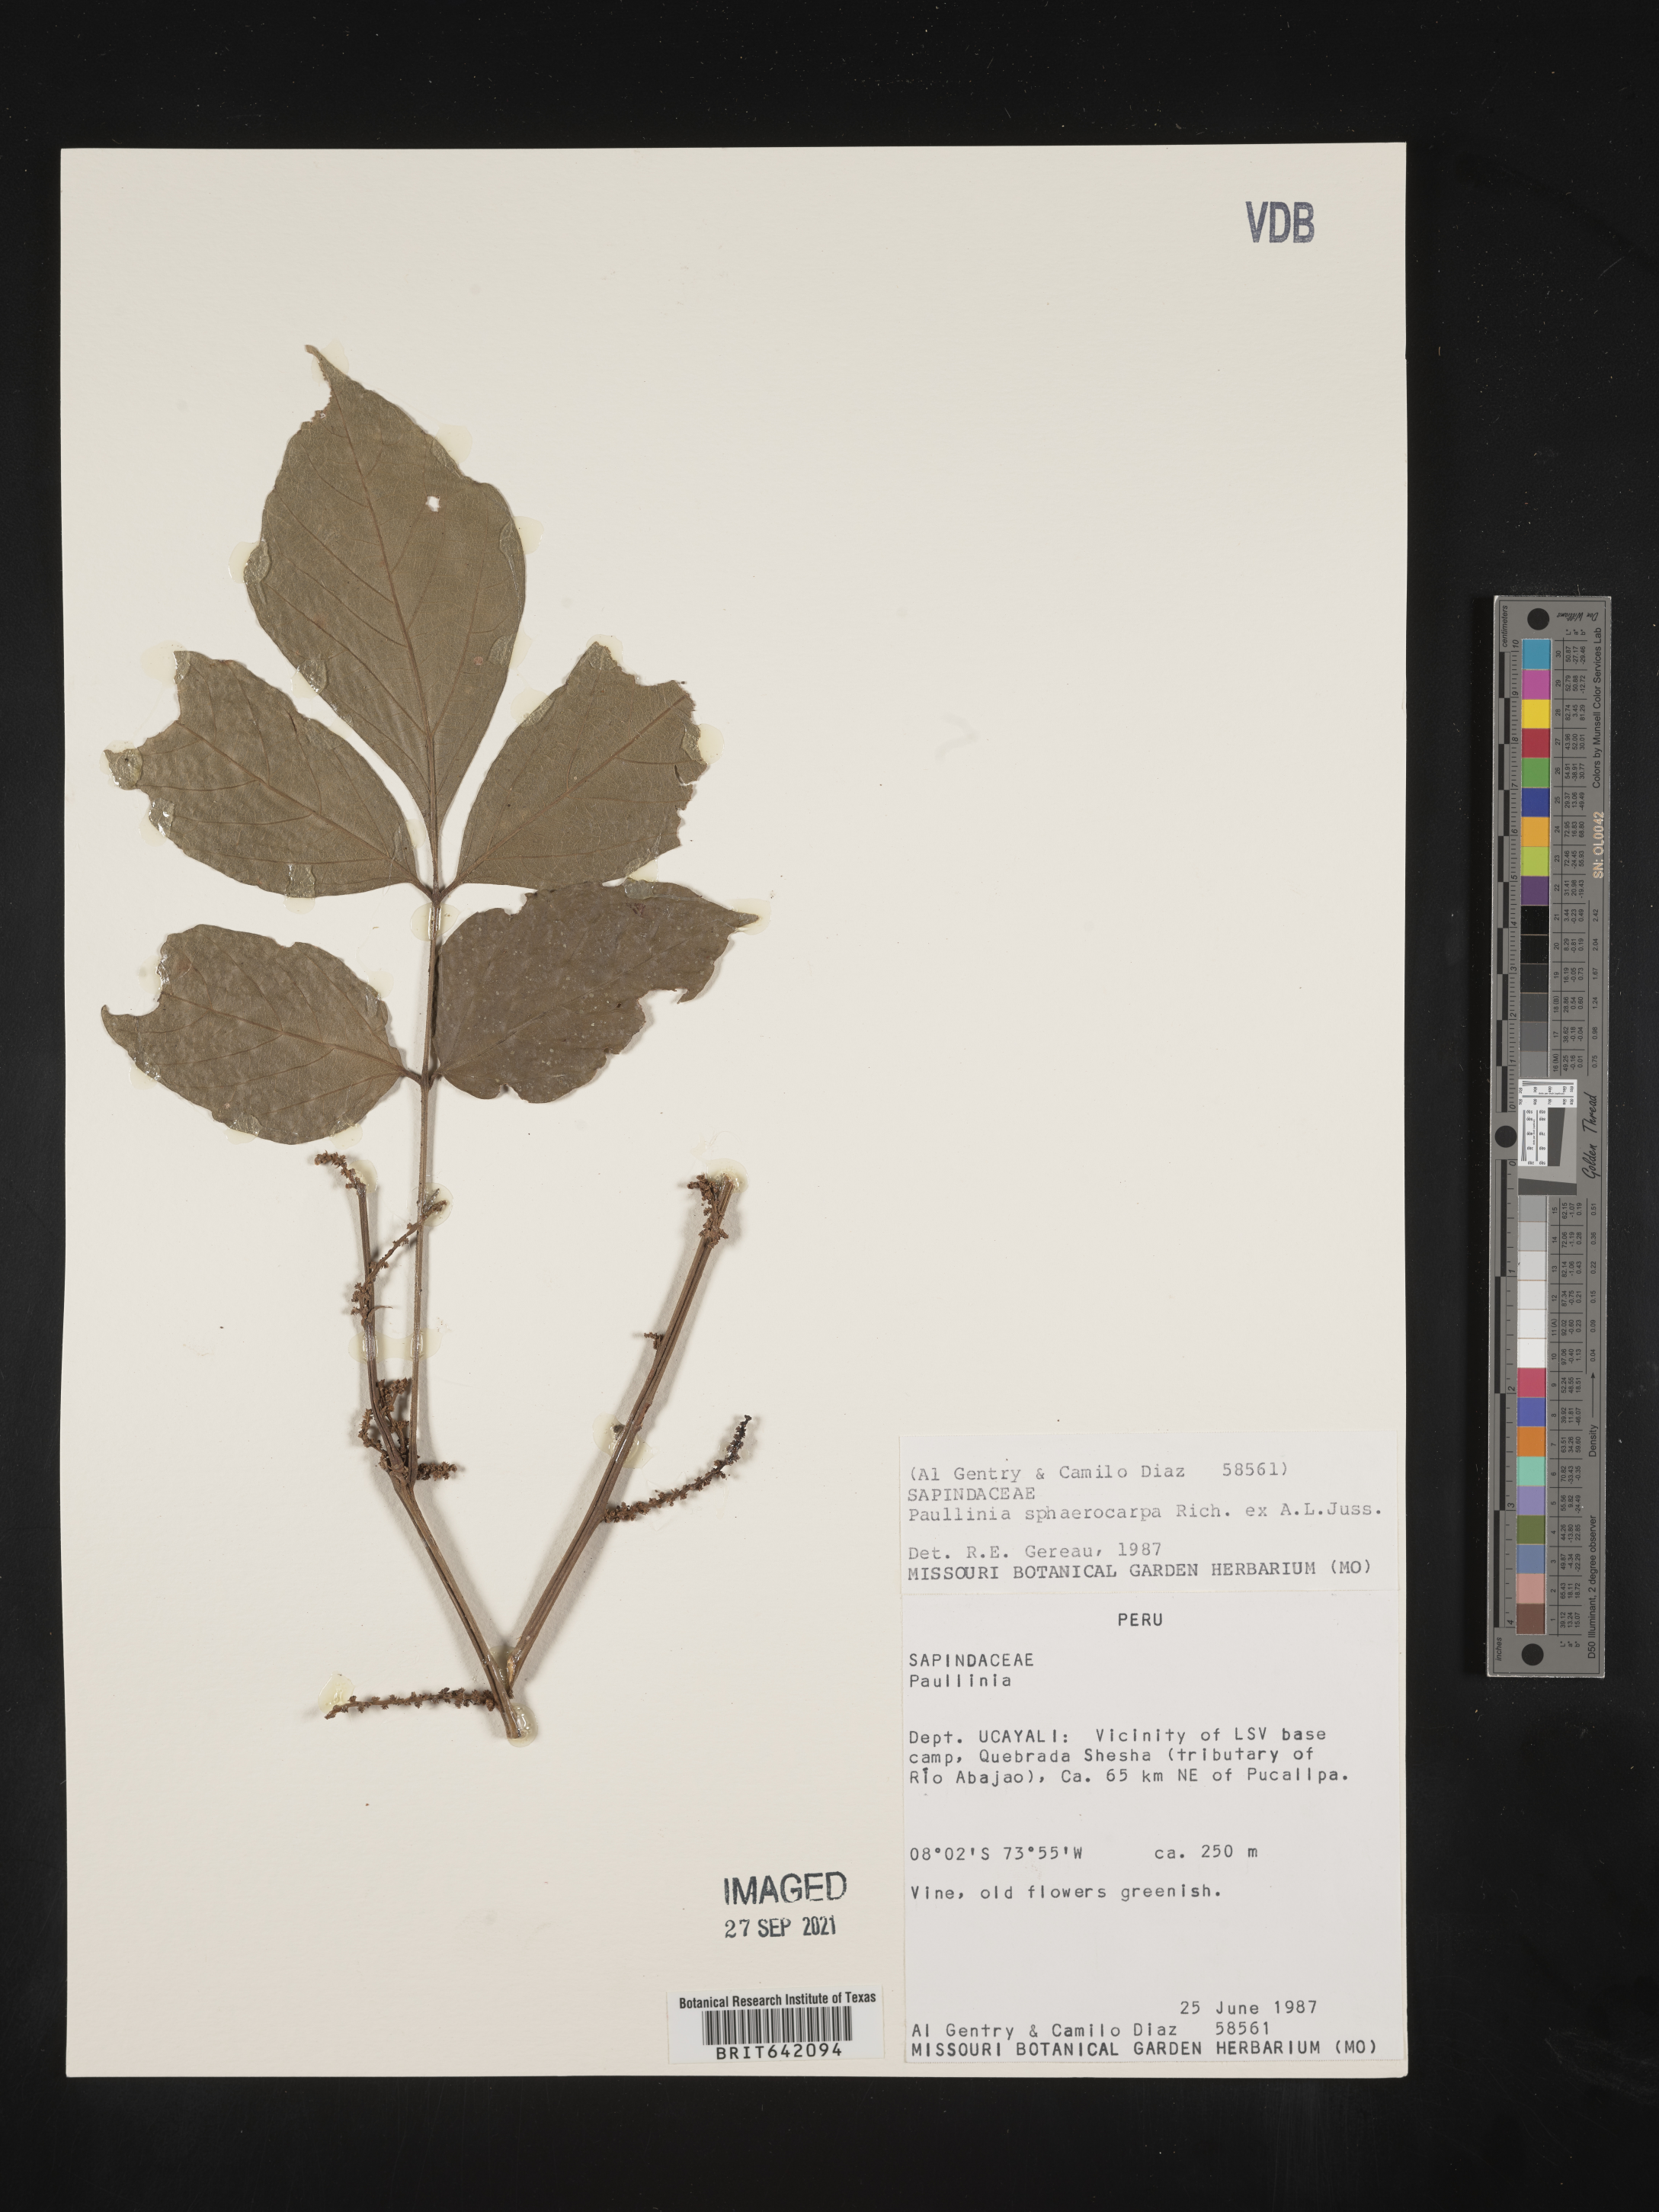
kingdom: Plantae
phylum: Tracheophyta
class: Magnoliopsida
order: Sapindales
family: Sapindaceae
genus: Paullinia
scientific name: Paullinia
